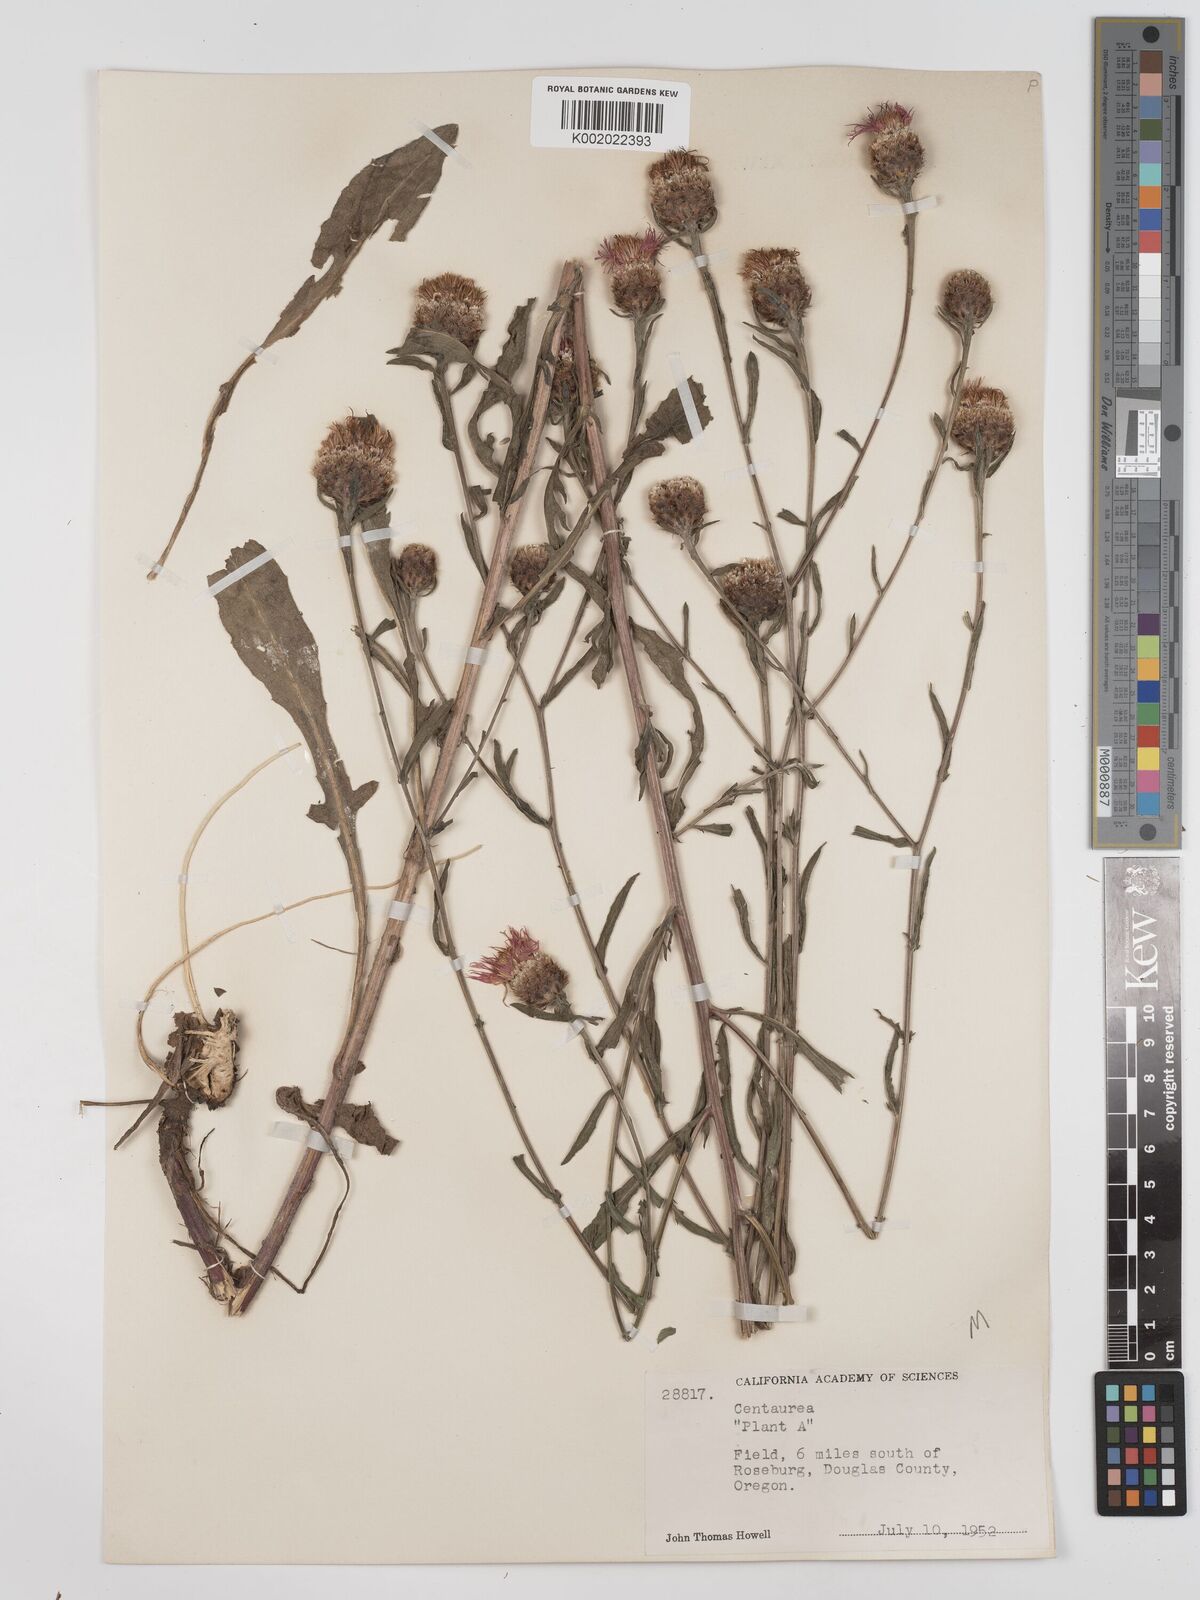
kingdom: Plantae
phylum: Tracheophyta
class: Magnoliopsida
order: Asterales
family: Asteraceae
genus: Centaurea
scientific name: Centaurea jacea
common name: Brown knapweed
